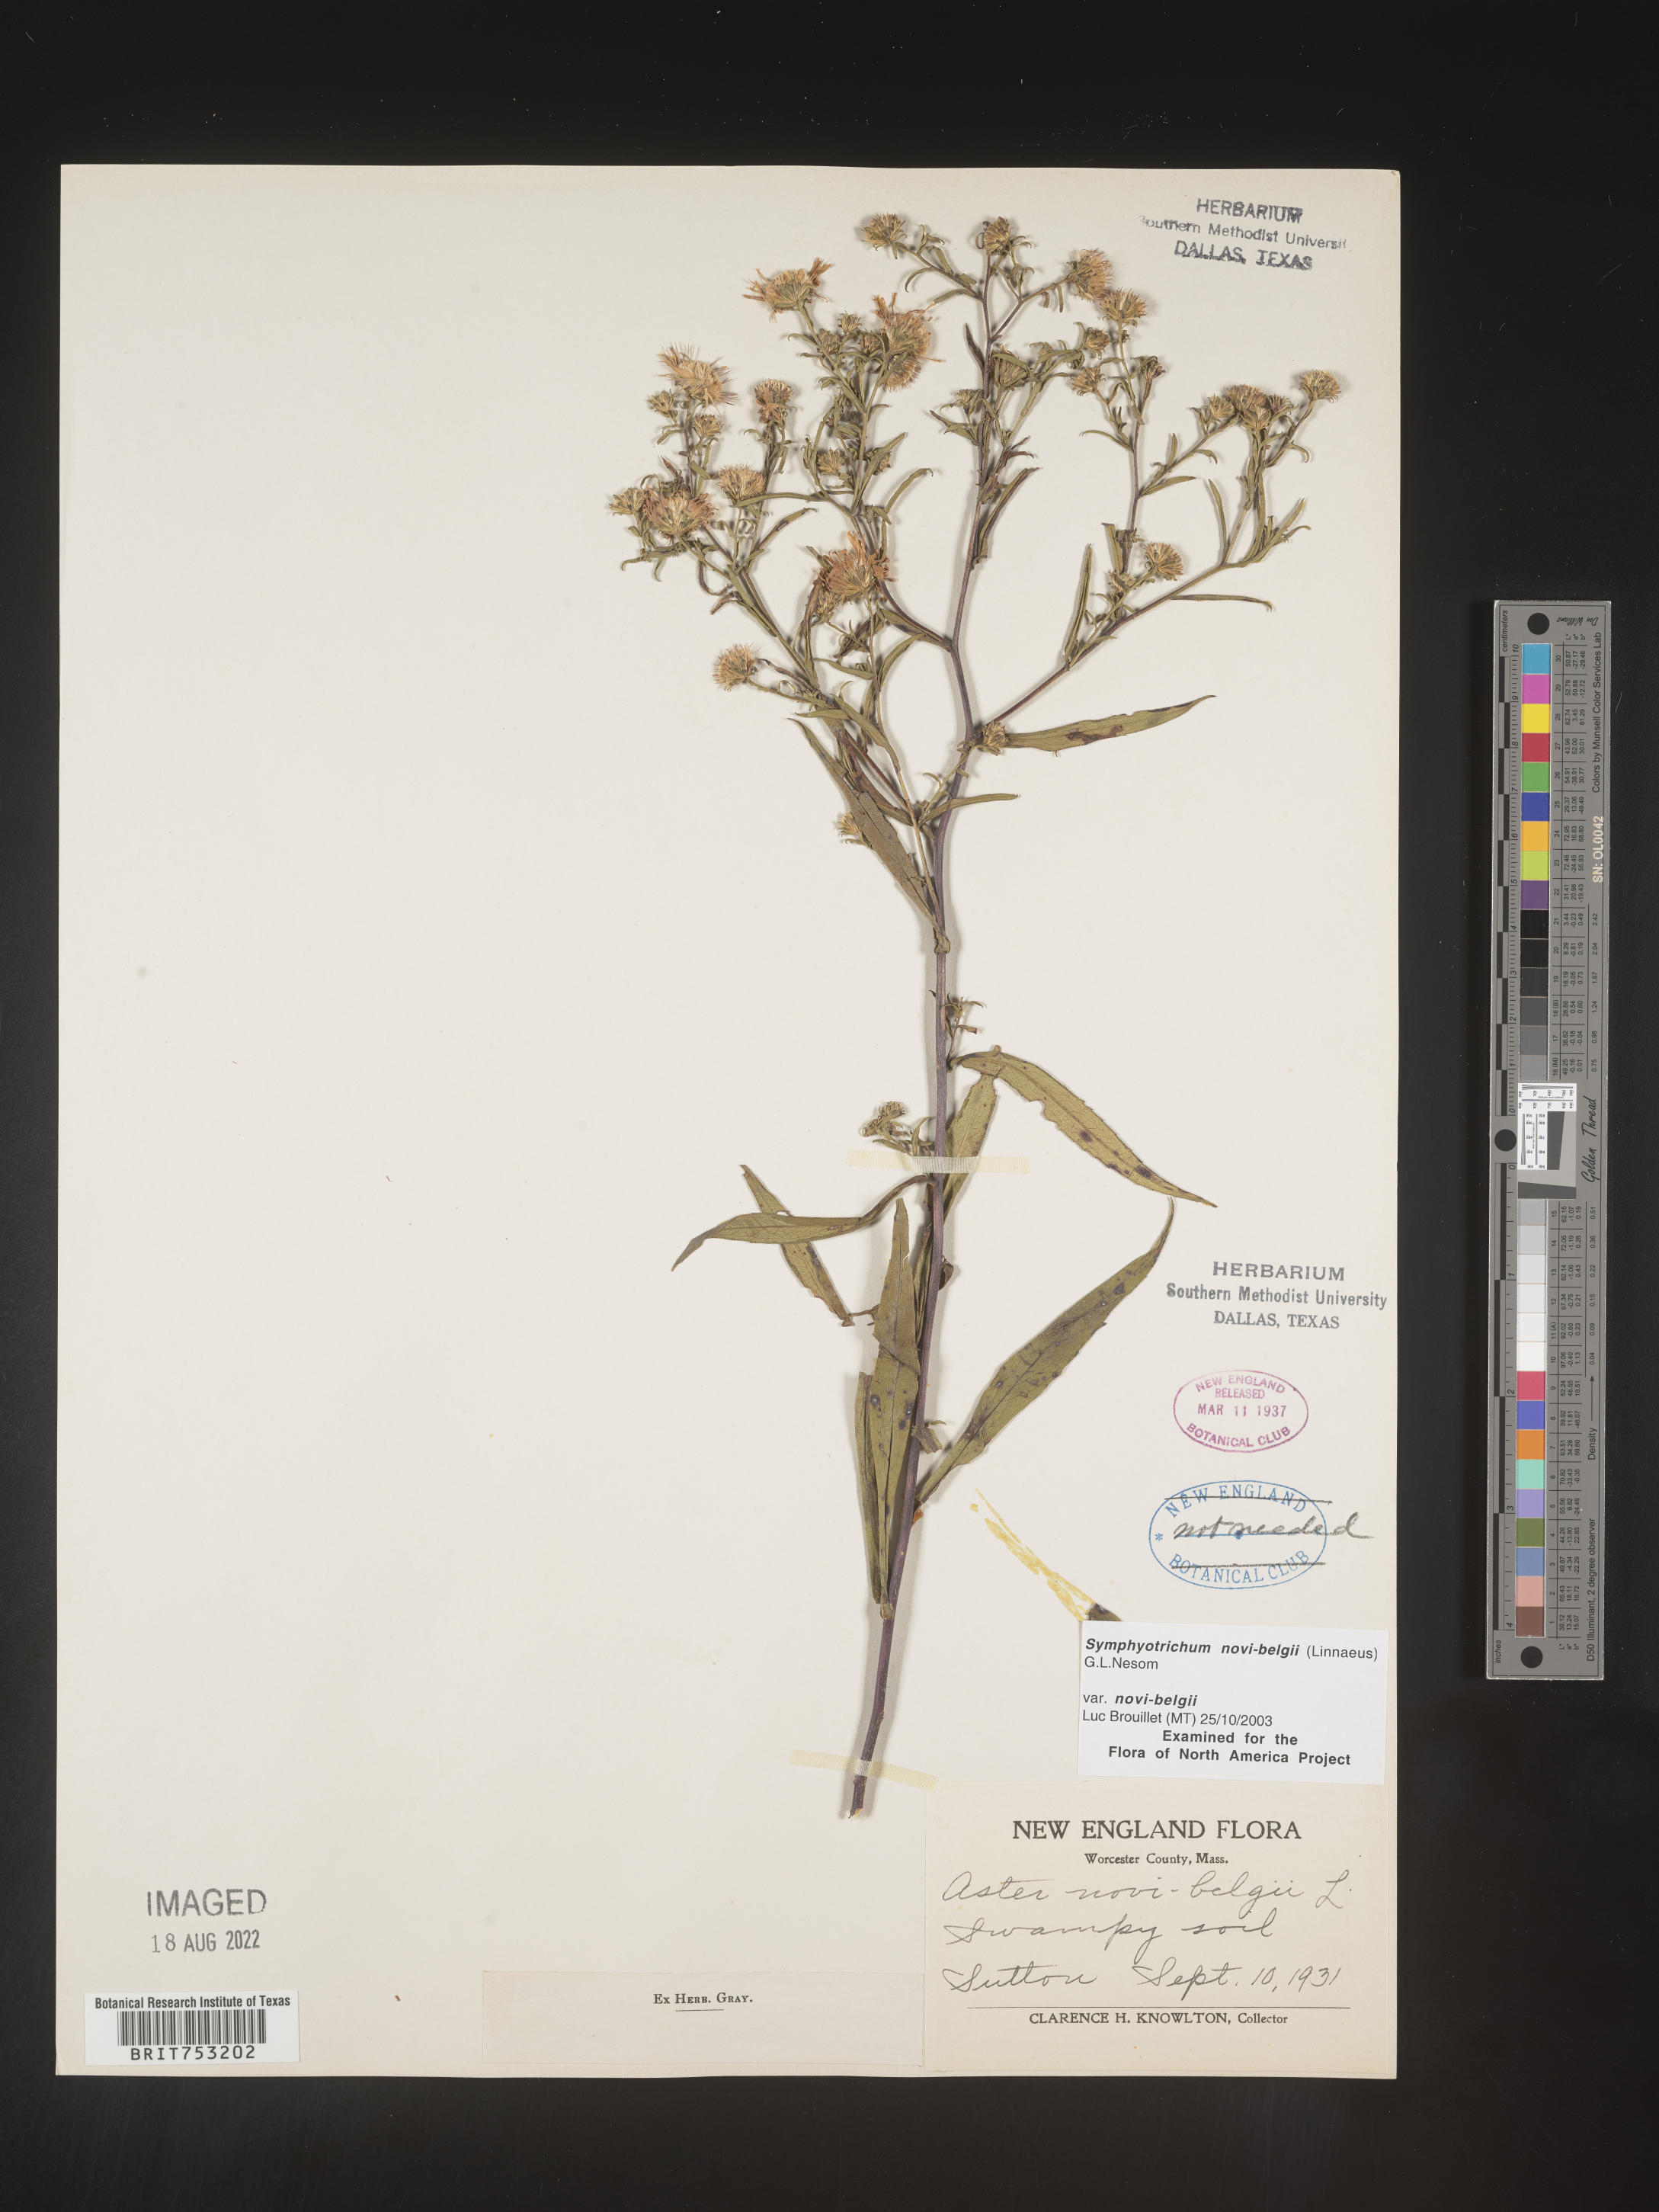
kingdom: Plantae
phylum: Tracheophyta
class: Magnoliopsida
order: Asterales
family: Asteraceae
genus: Symphyotrichum
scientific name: Symphyotrichum novi-belgii
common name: Michaelmas daisy
